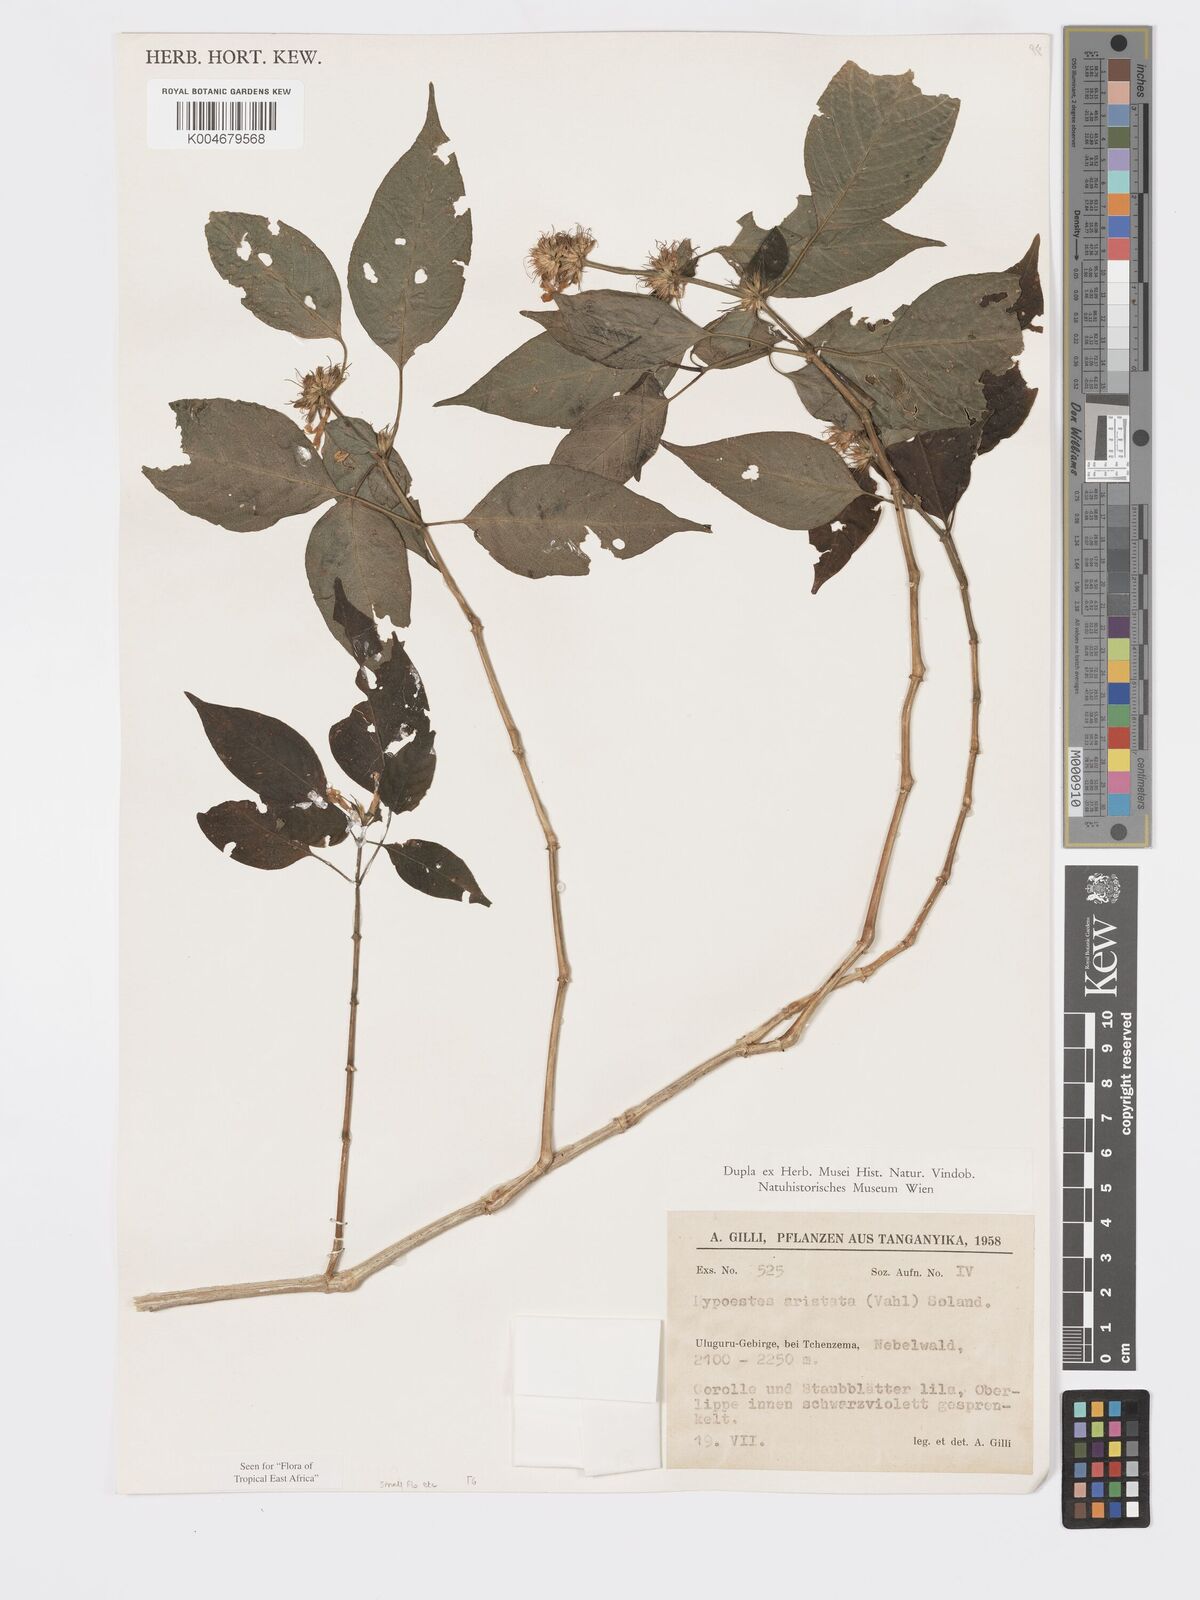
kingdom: Plantae
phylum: Tracheophyta
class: Magnoliopsida
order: Lamiales
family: Acanthaceae
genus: Hypoestes
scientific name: Hypoestes aristata
